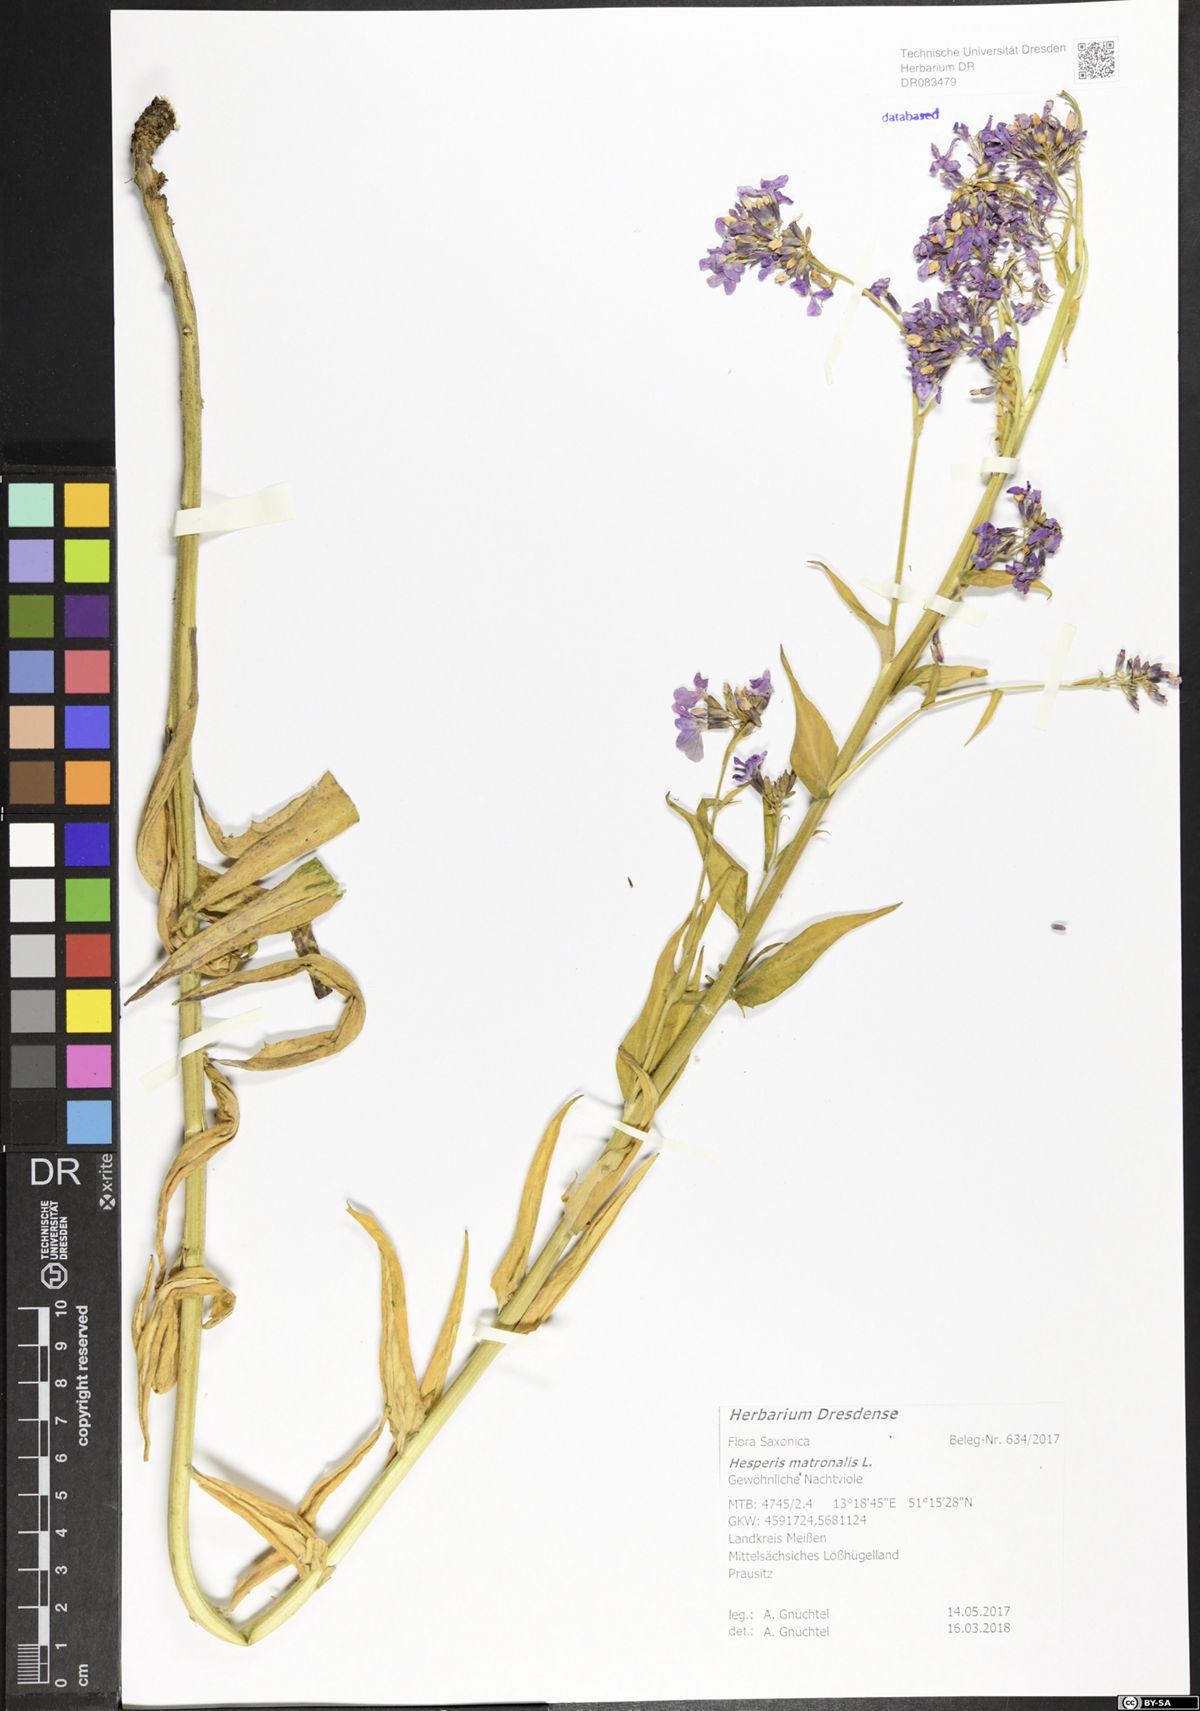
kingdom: Plantae
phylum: Tracheophyta
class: Magnoliopsida
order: Brassicales
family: Brassicaceae
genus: Hesperis
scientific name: Hesperis matronalis
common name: Dame's-violet
